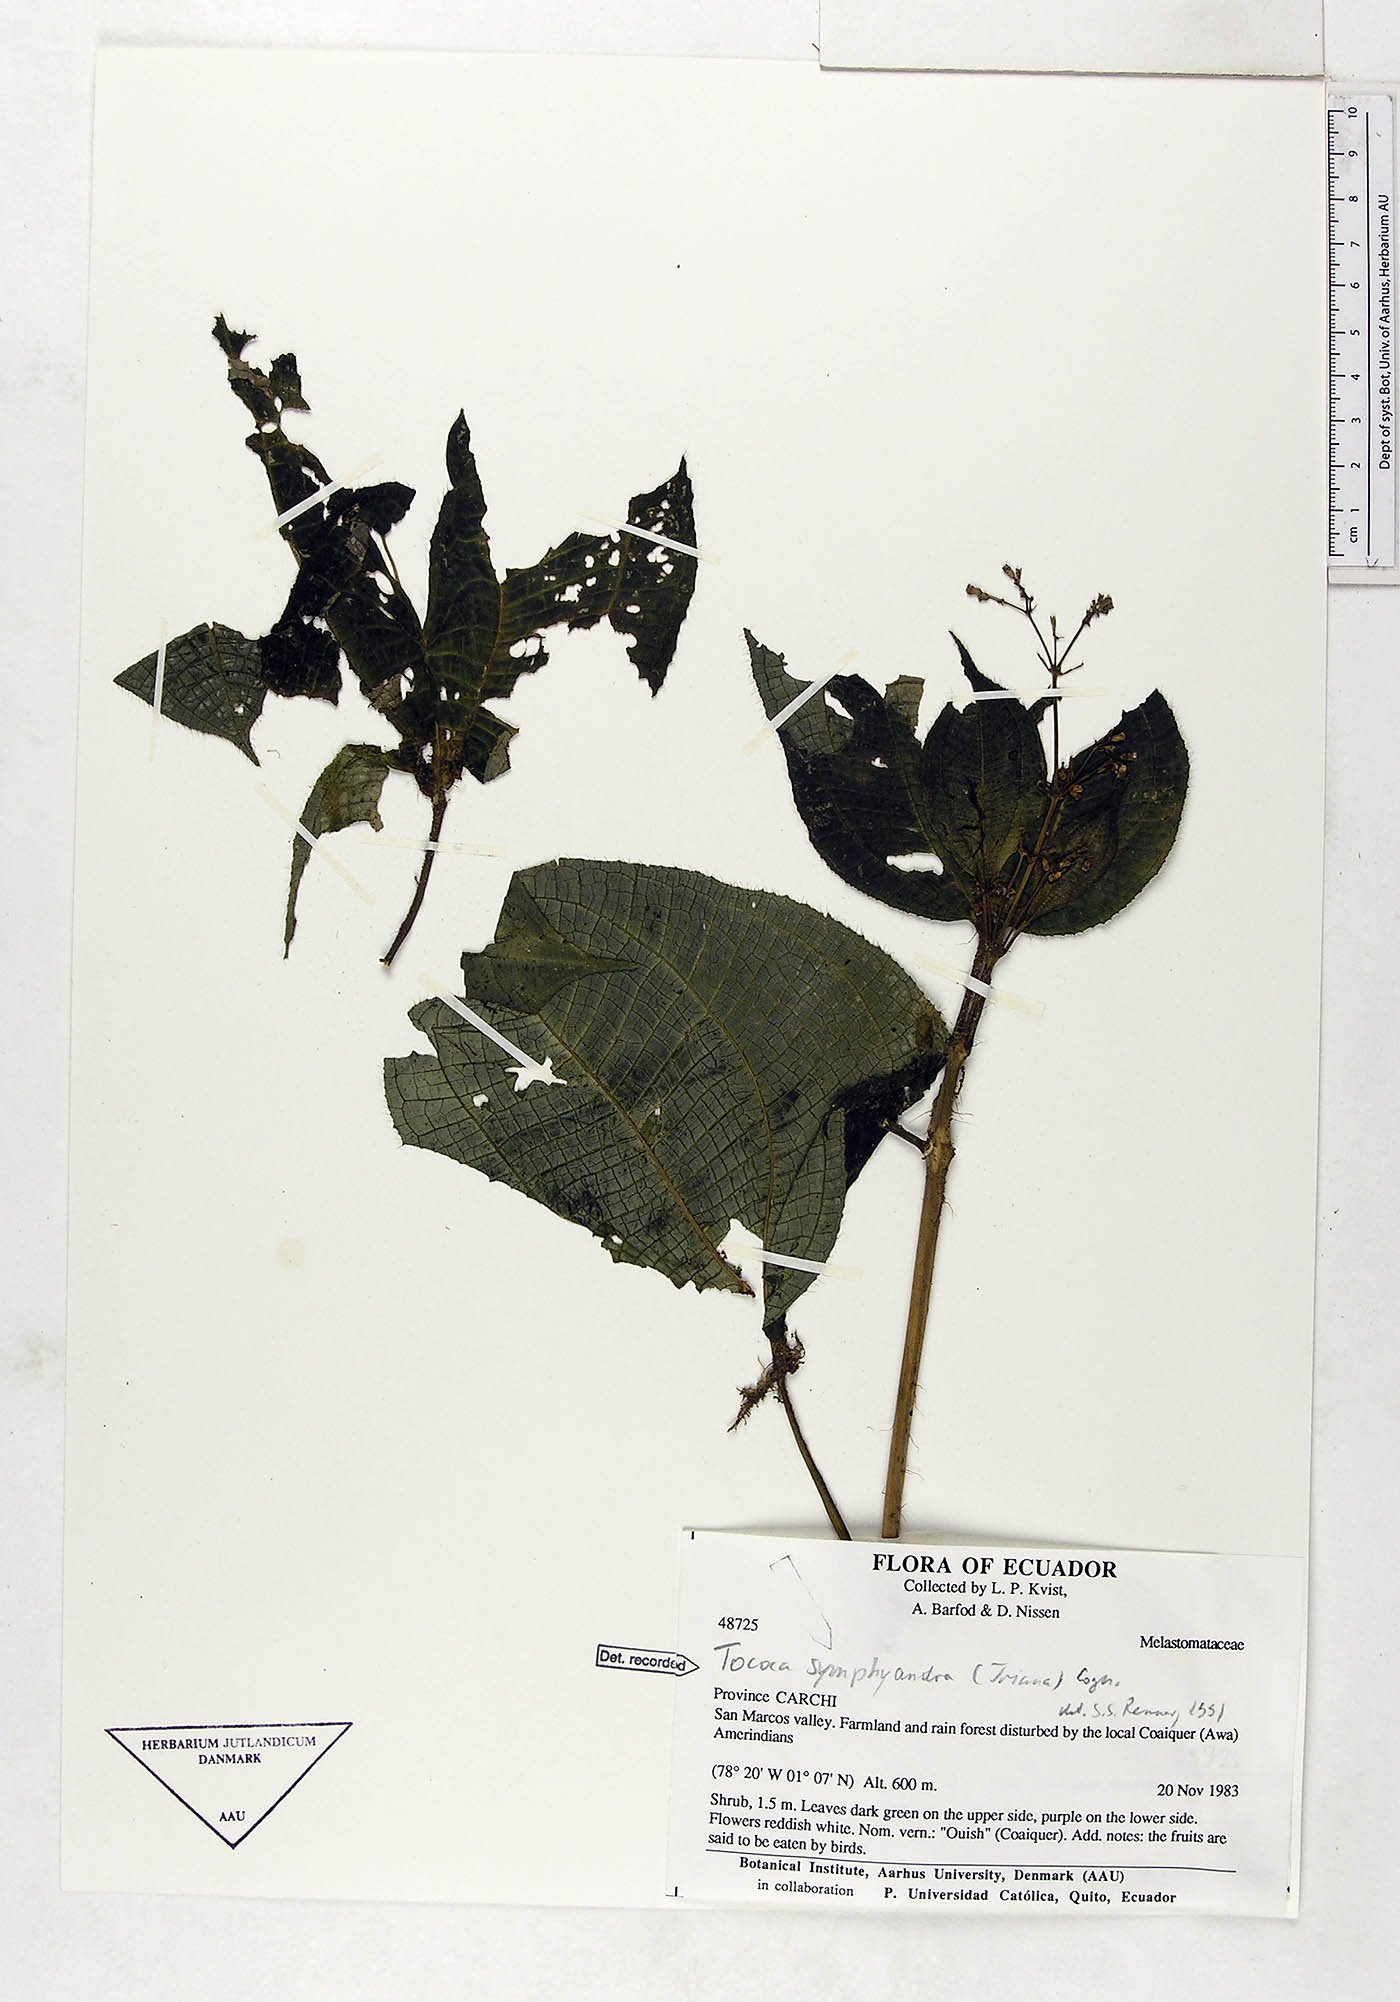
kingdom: Plantae
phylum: Tracheophyta
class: Magnoliopsida
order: Myrtales
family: Melastomataceae
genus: Miconia
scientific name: Miconia symphyandra
